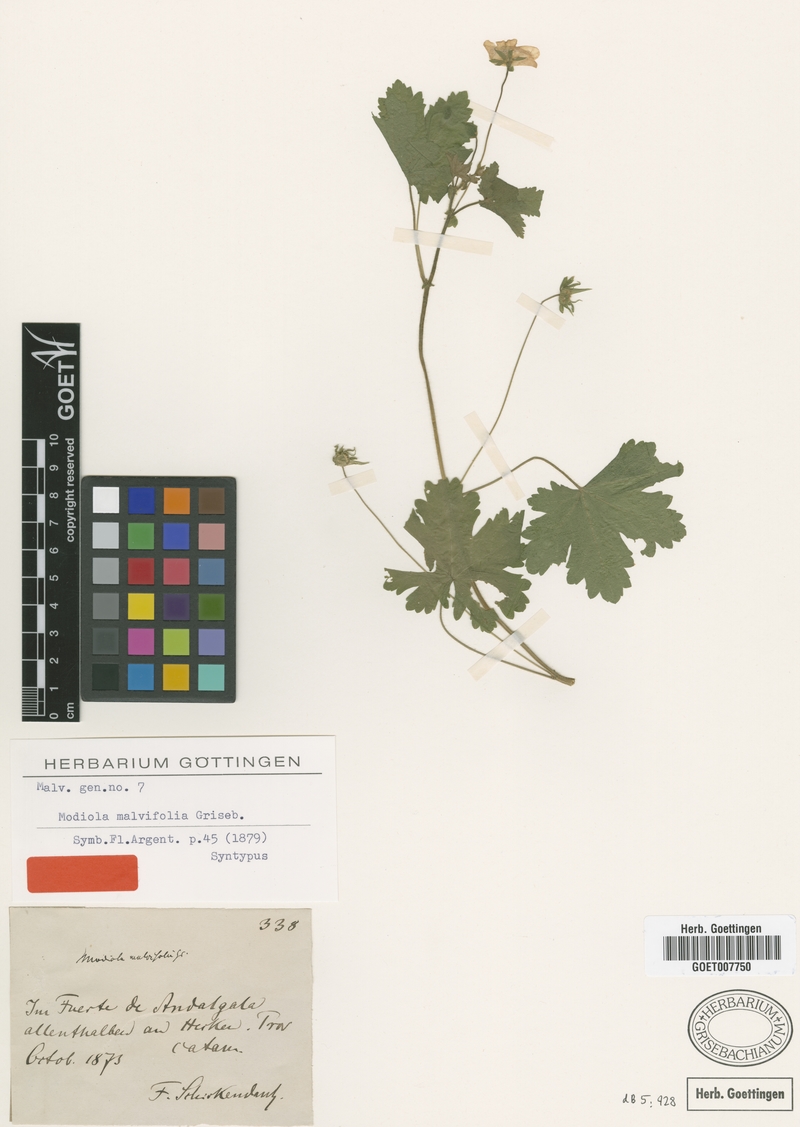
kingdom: Plantae
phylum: Tracheophyta
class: Magnoliopsida
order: Malvales
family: Malvaceae
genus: Modiolastrum
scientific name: Modiolastrum malvifolium
